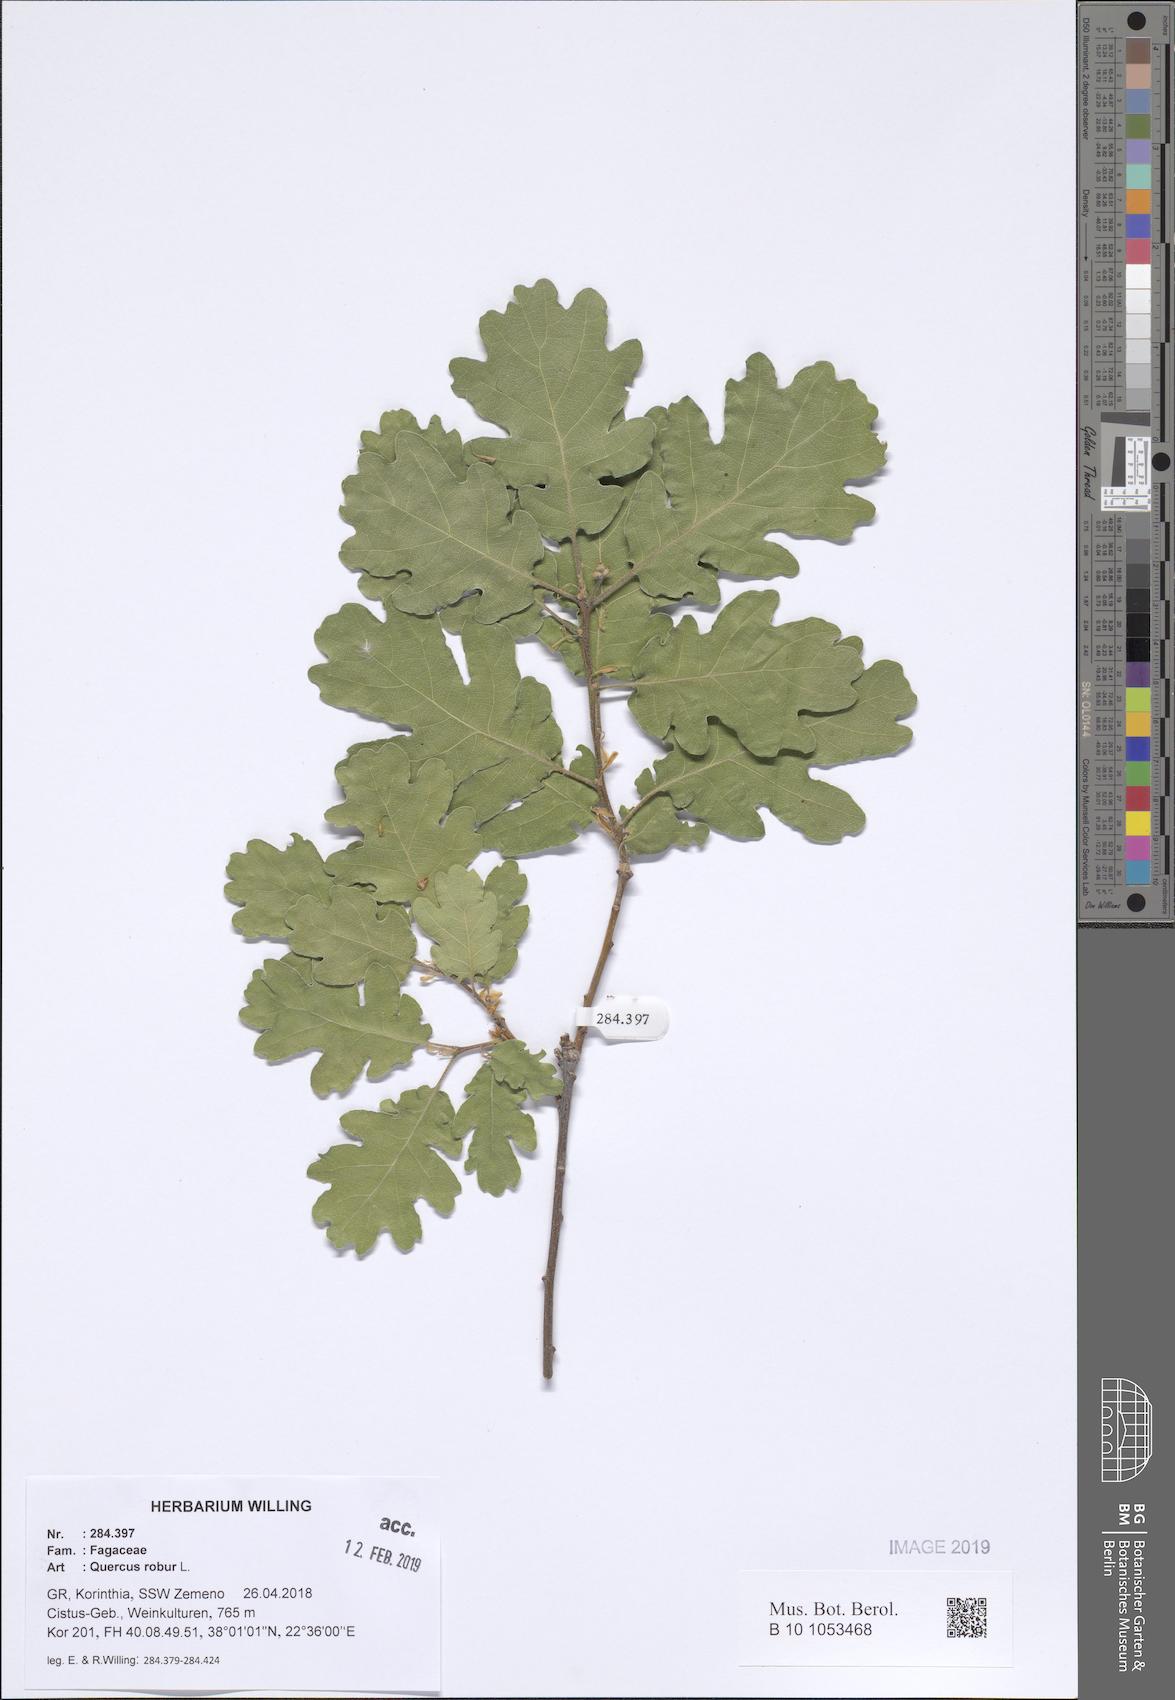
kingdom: Plantae
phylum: Tracheophyta
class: Magnoliopsida
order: Fagales
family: Fagaceae
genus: Quercus
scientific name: Quercus robur
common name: Pedunculate oak
